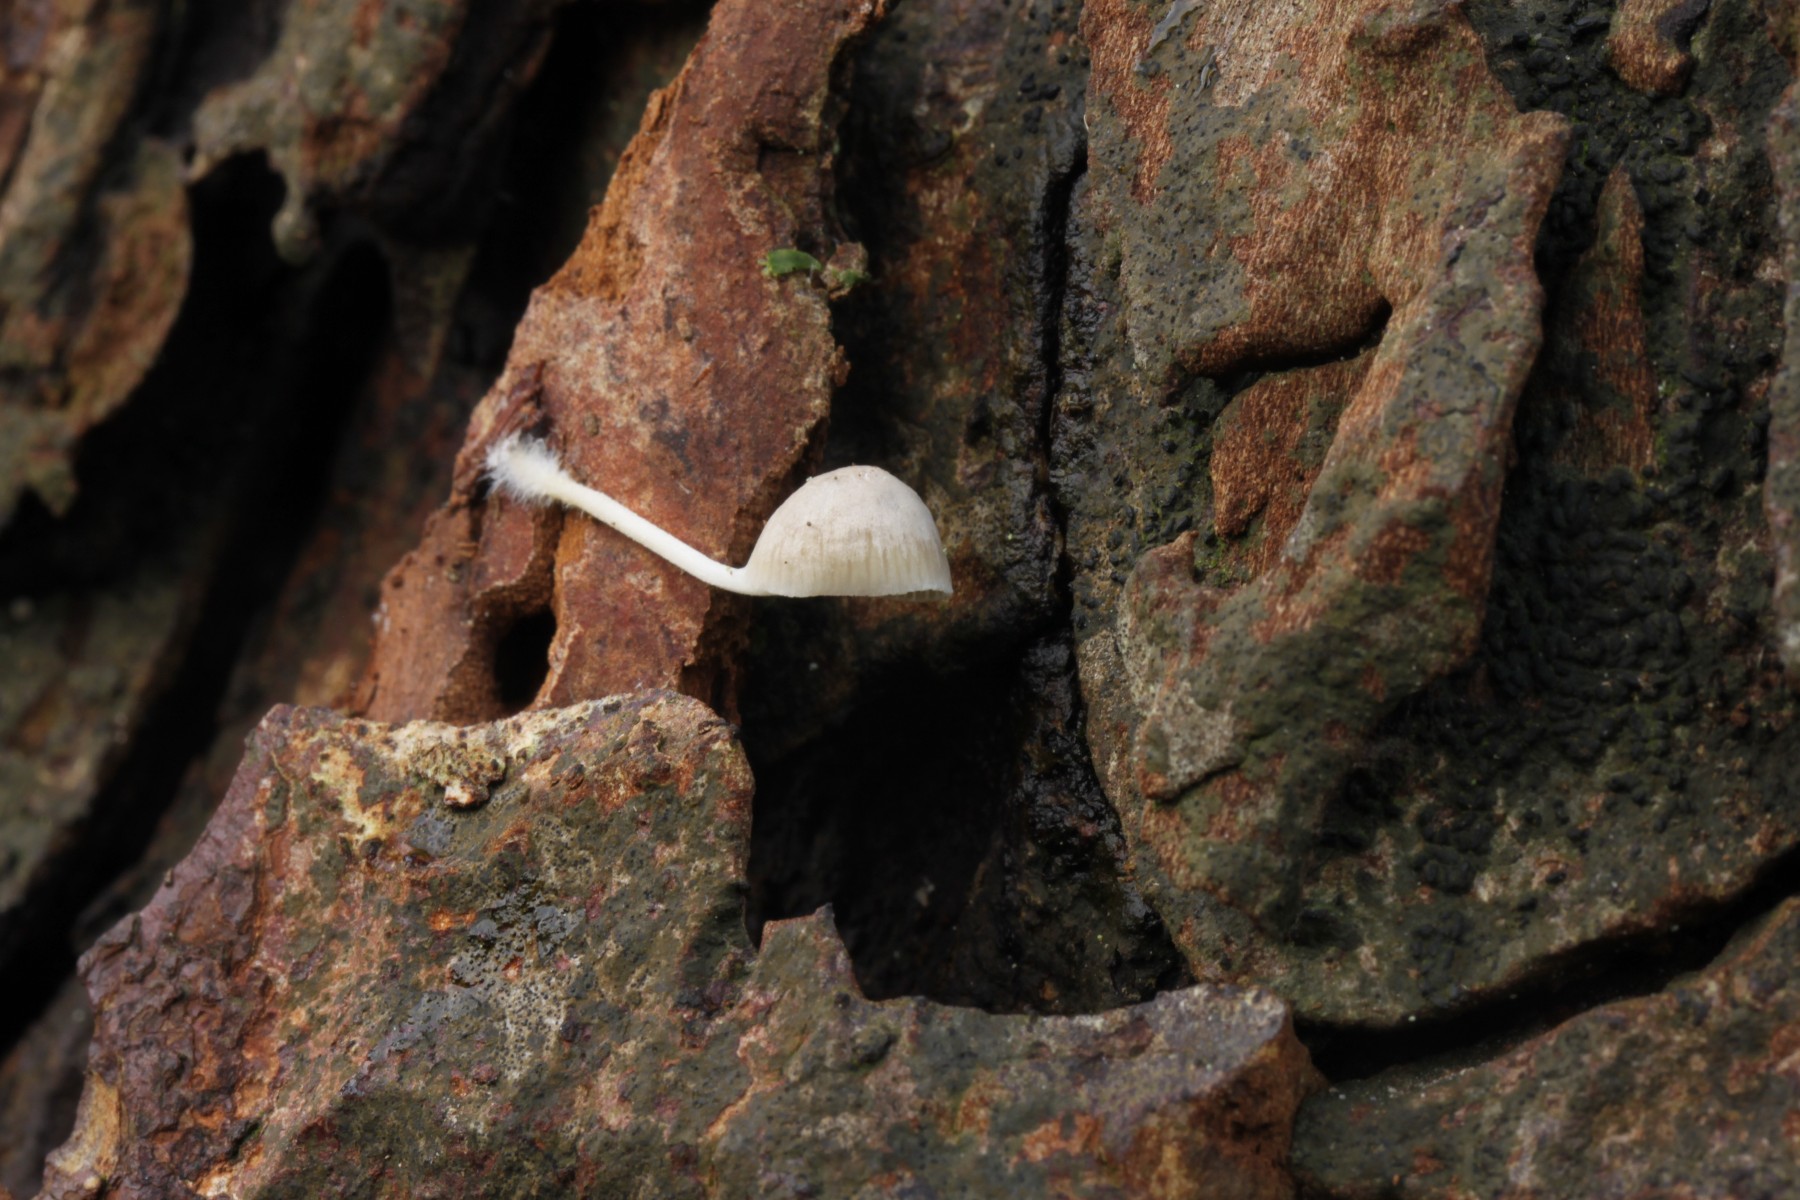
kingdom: Fungi
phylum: Basidiomycota
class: Agaricomycetes
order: Agaricales
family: Mycenaceae
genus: Mycena
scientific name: Mycena
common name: huesvamp
